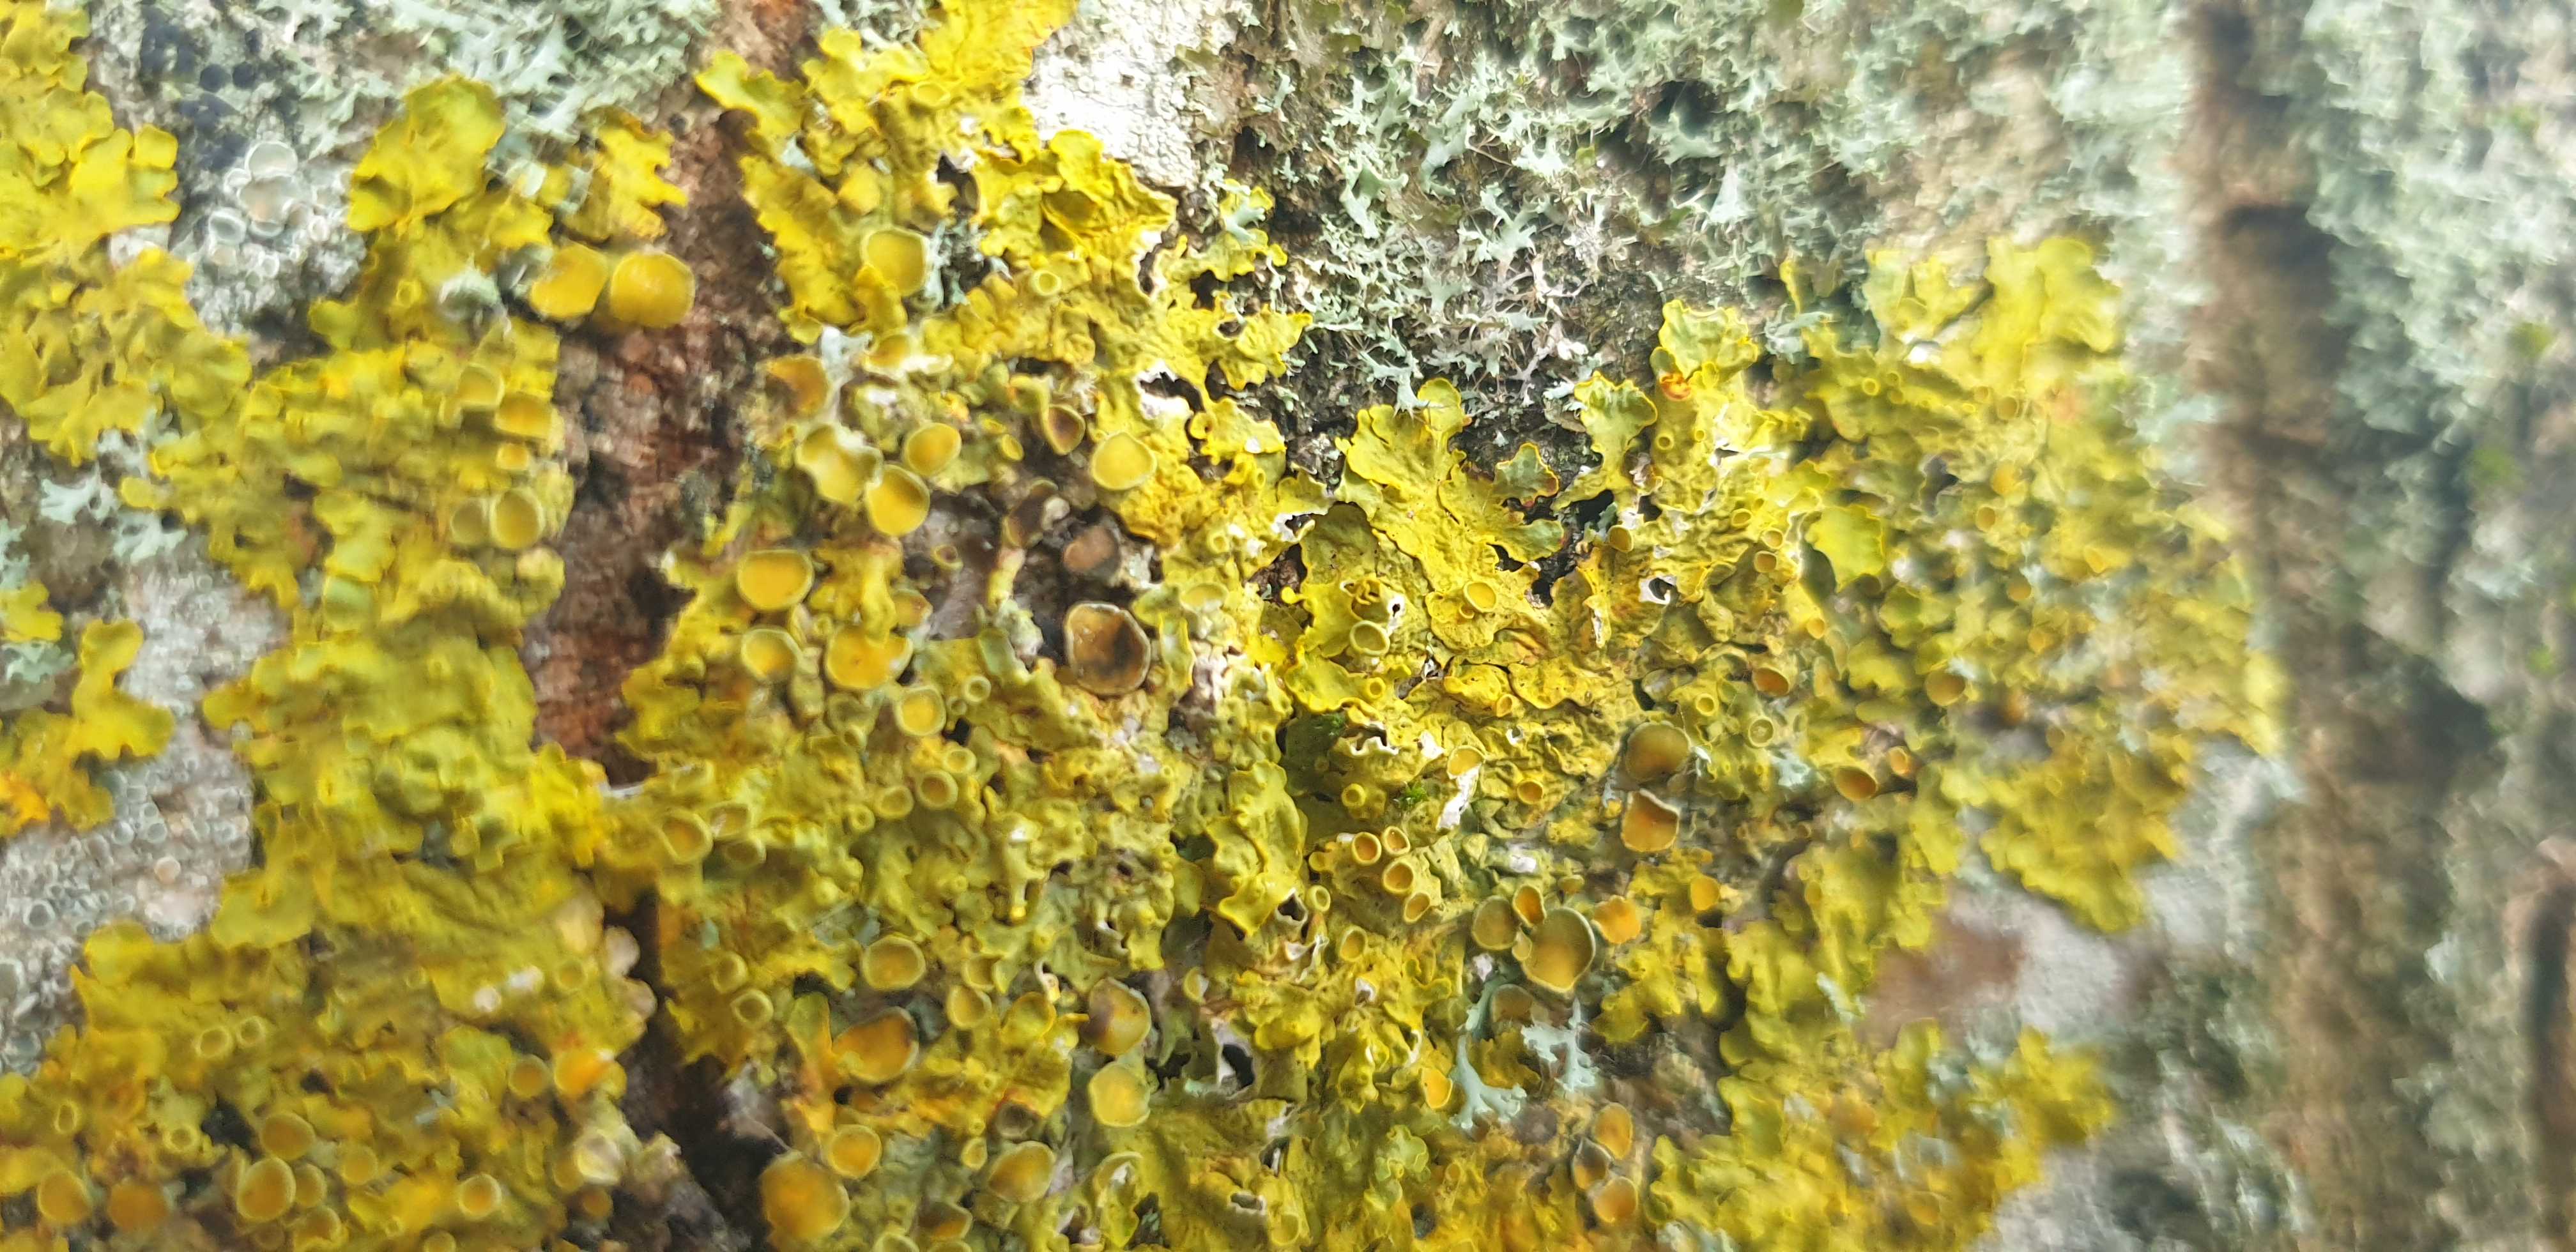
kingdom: Fungi
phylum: Ascomycota
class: Lecanoromycetes
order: Teloschistales
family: Teloschistaceae
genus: Xanthoria
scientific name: Xanthoria parietina
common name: almindelig væggelav
